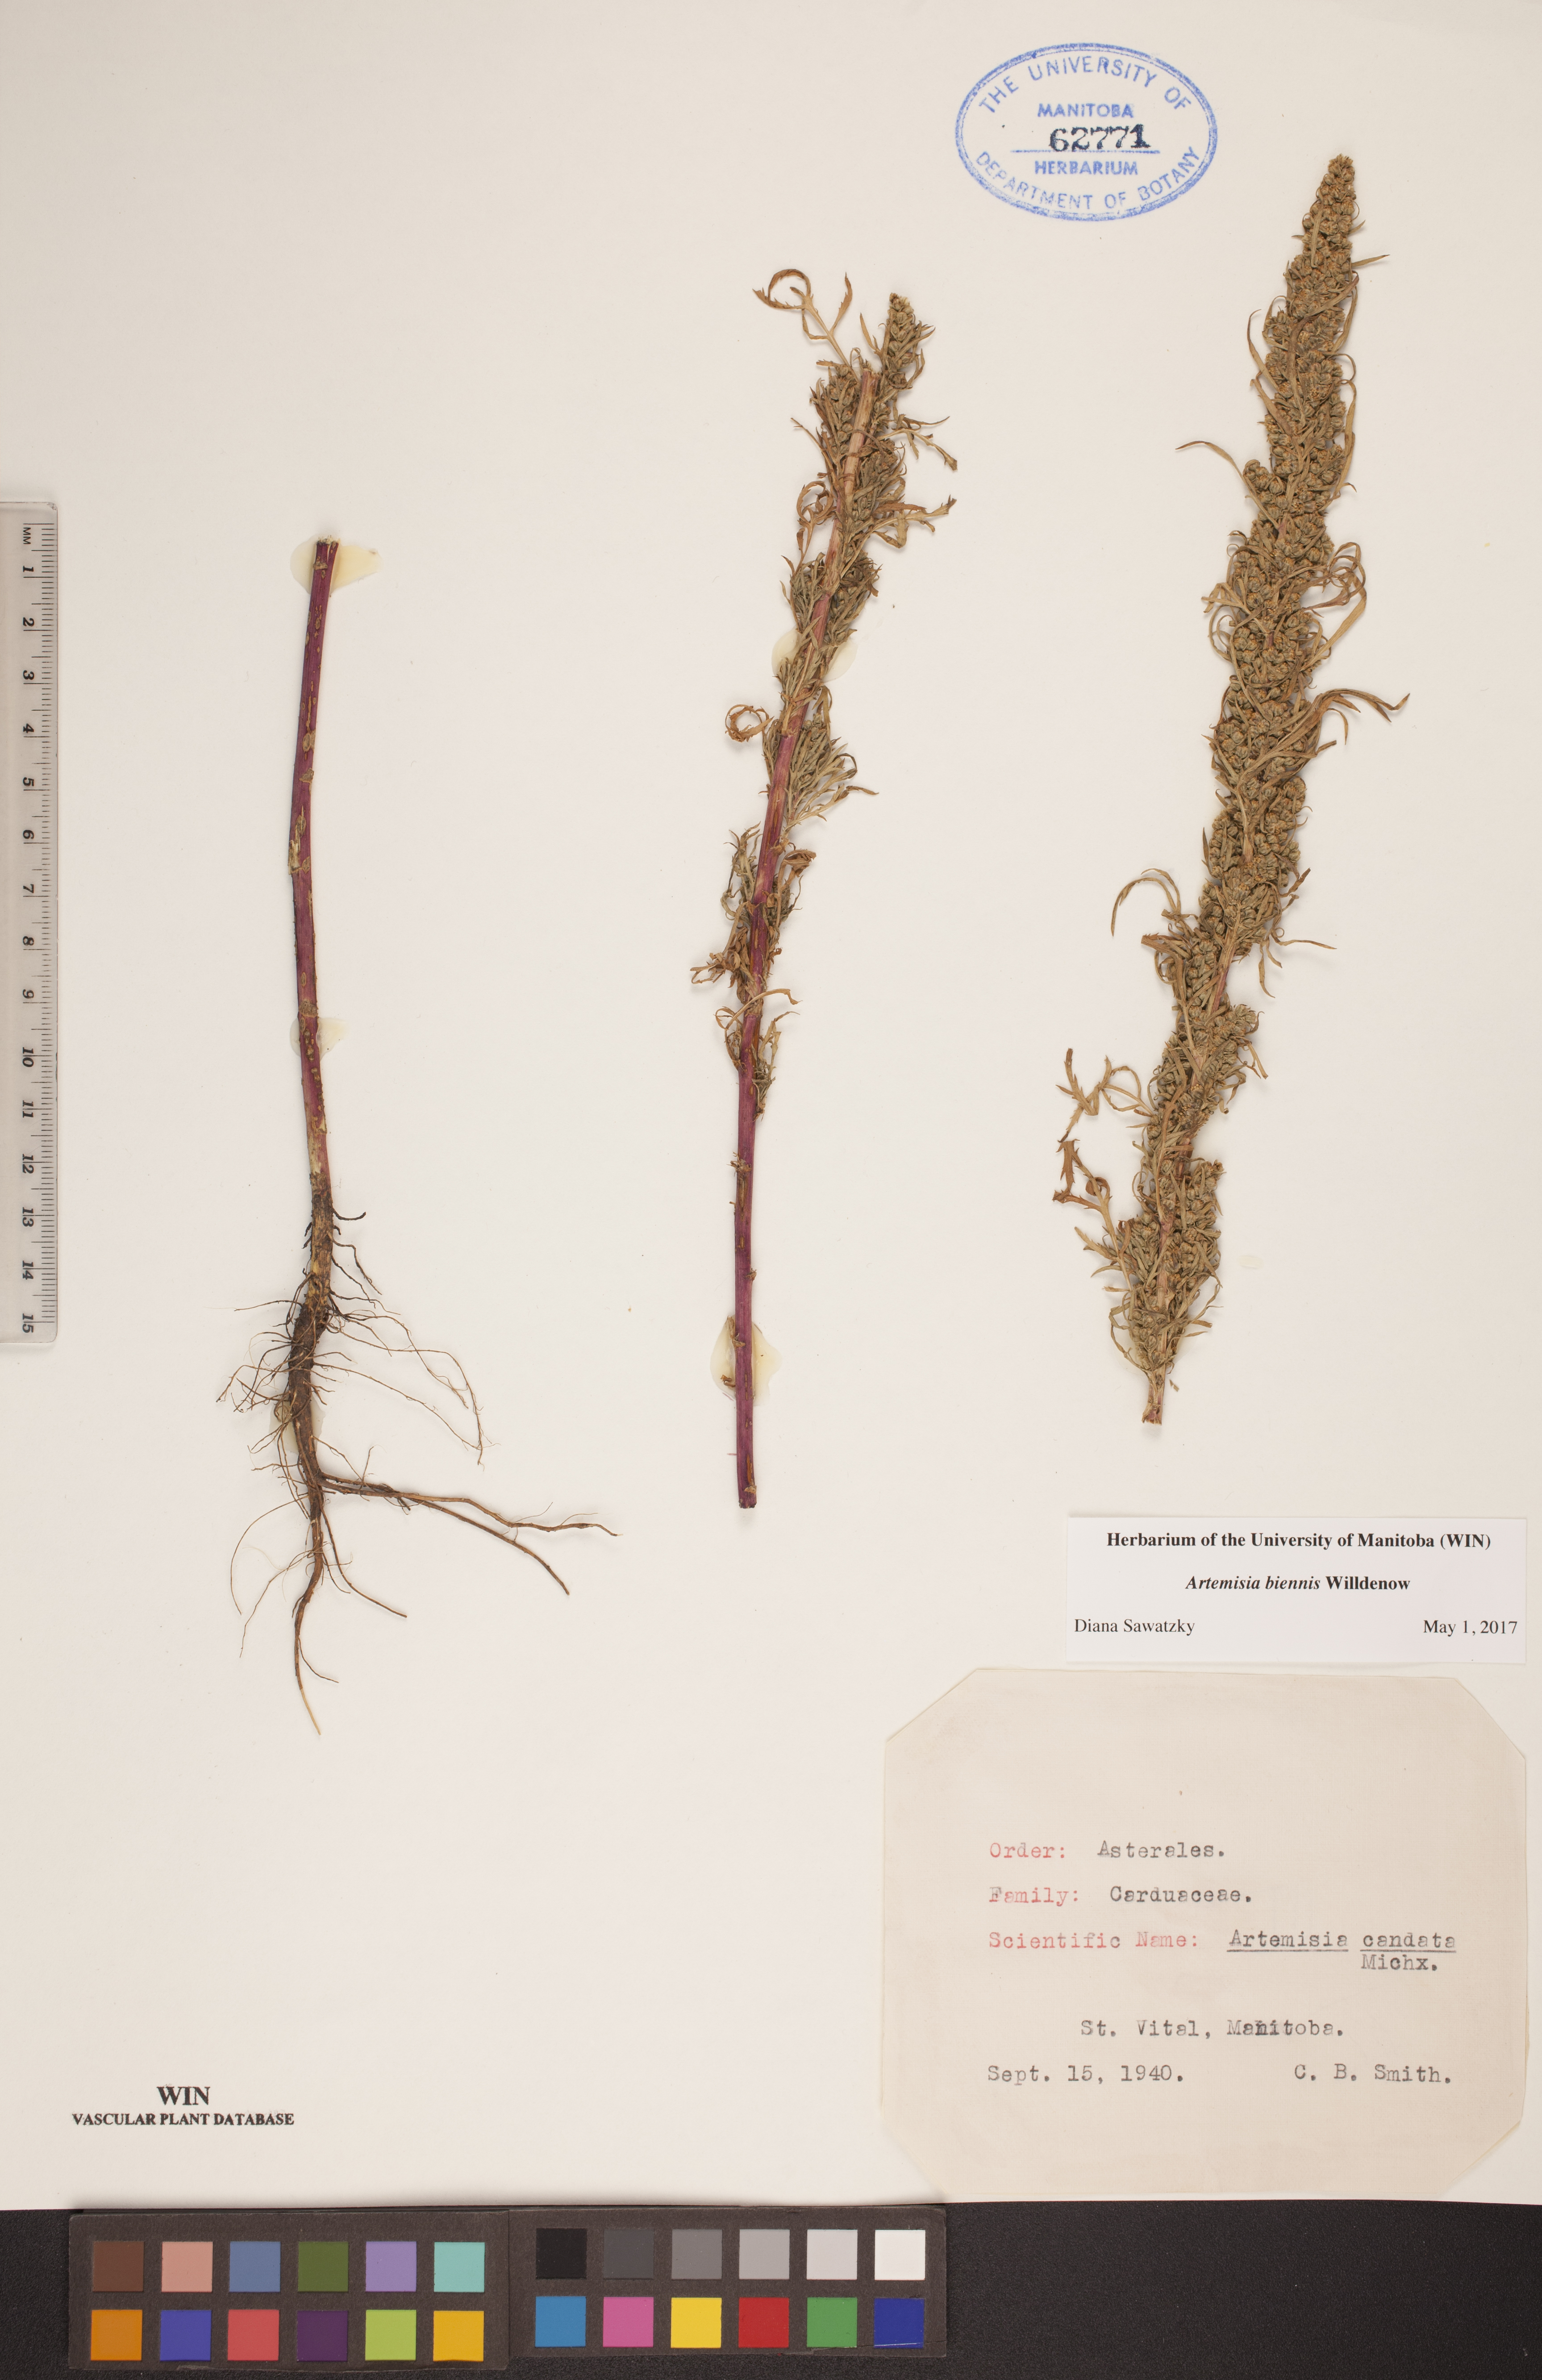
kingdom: Plantae
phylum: Tracheophyta
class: Magnoliopsida
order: Asterales
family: Asteraceae
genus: Artemisia
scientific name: Artemisia biennis
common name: Biennial wormwood
